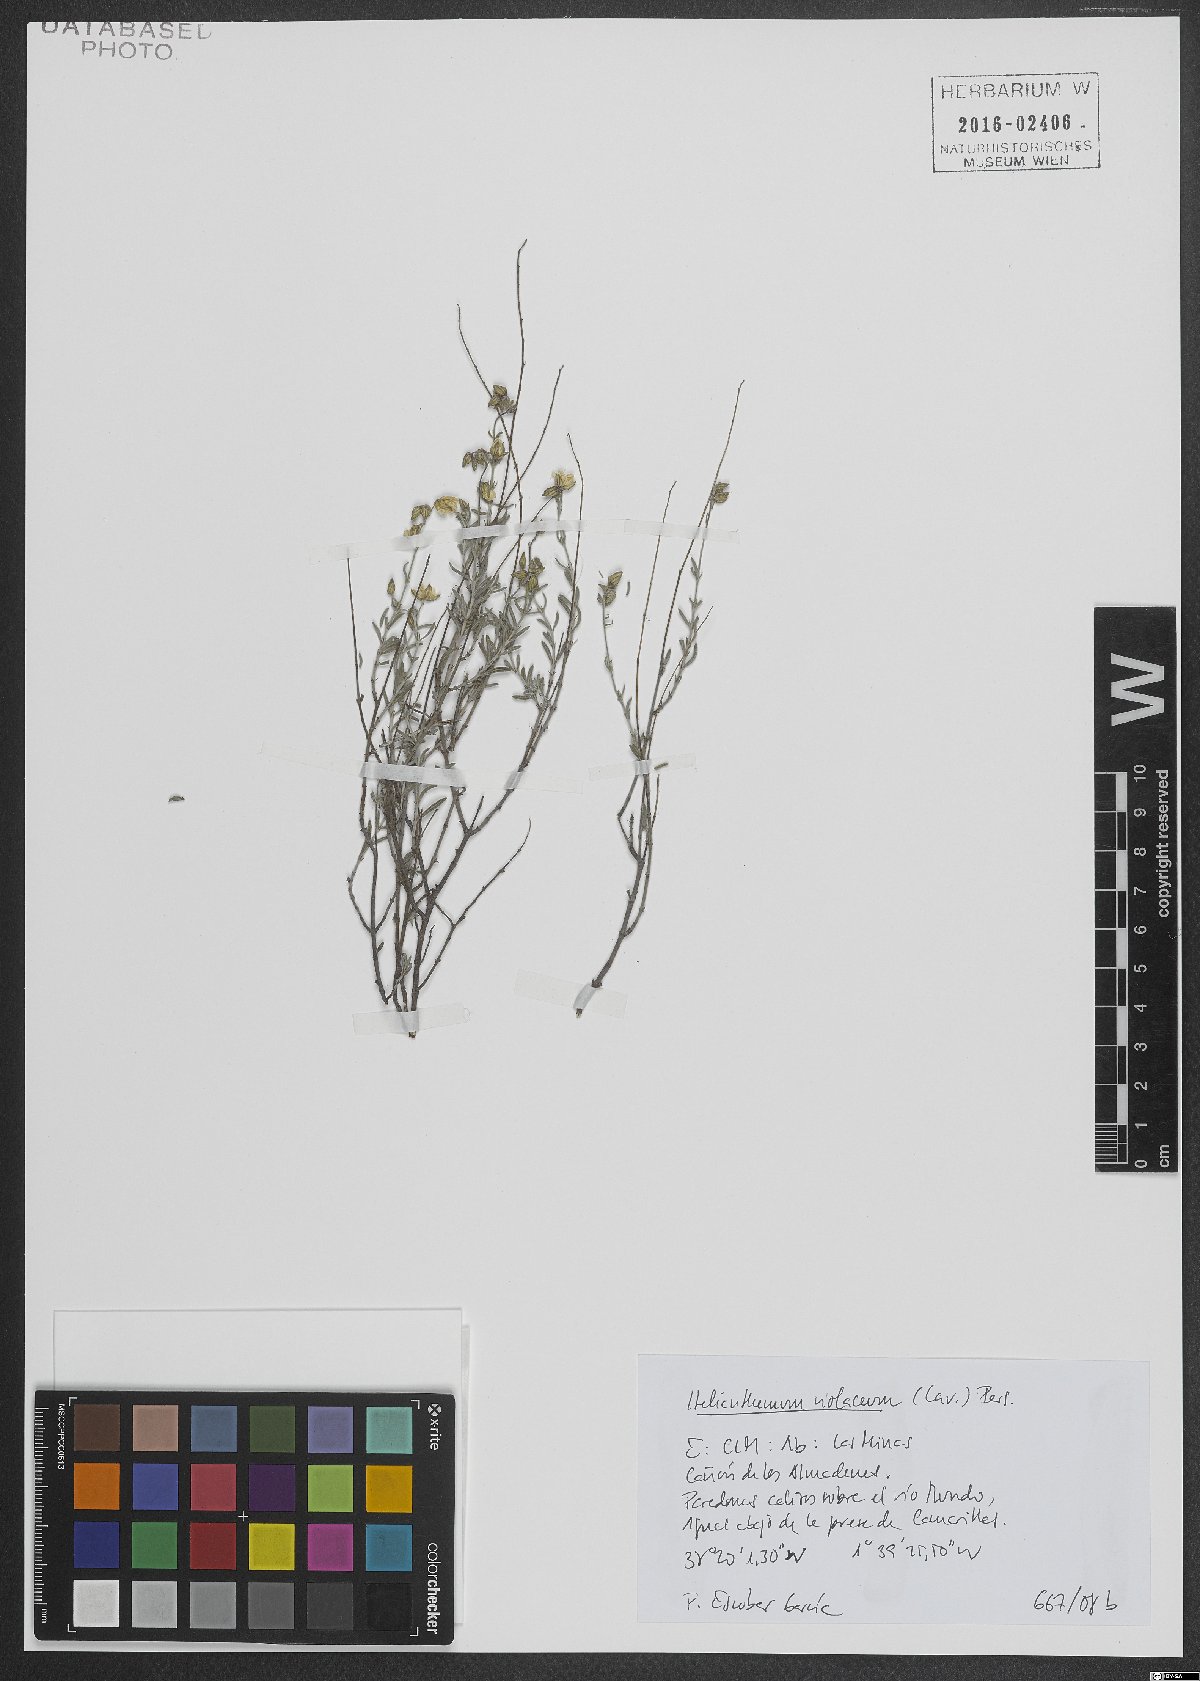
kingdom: Plantae
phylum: Tracheophyta
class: Magnoliopsida
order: Malvales
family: Cistaceae
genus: Helianthemum
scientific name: Helianthemum violaceum
